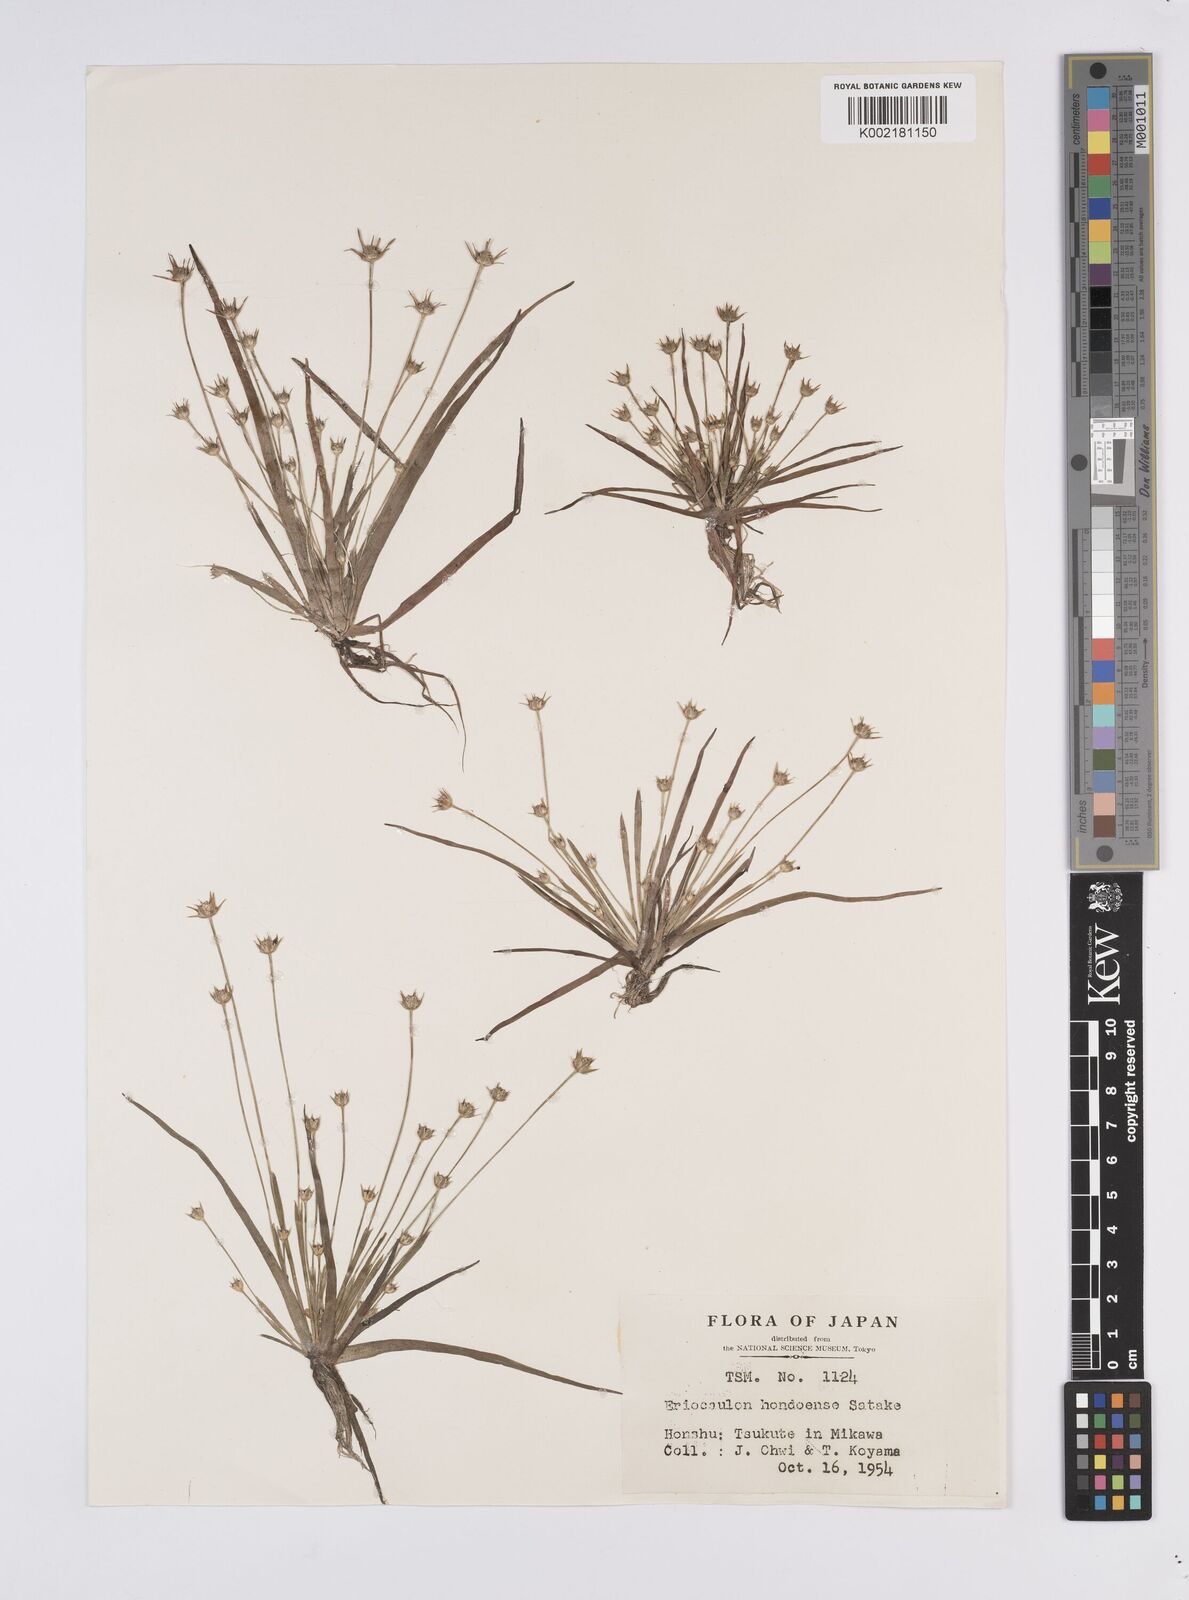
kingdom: Plantae
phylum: Tracheophyta
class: Liliopsida
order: Poales
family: Eriocaulaceae
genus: Eriocaulon
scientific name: Eriocaulon taquetii
